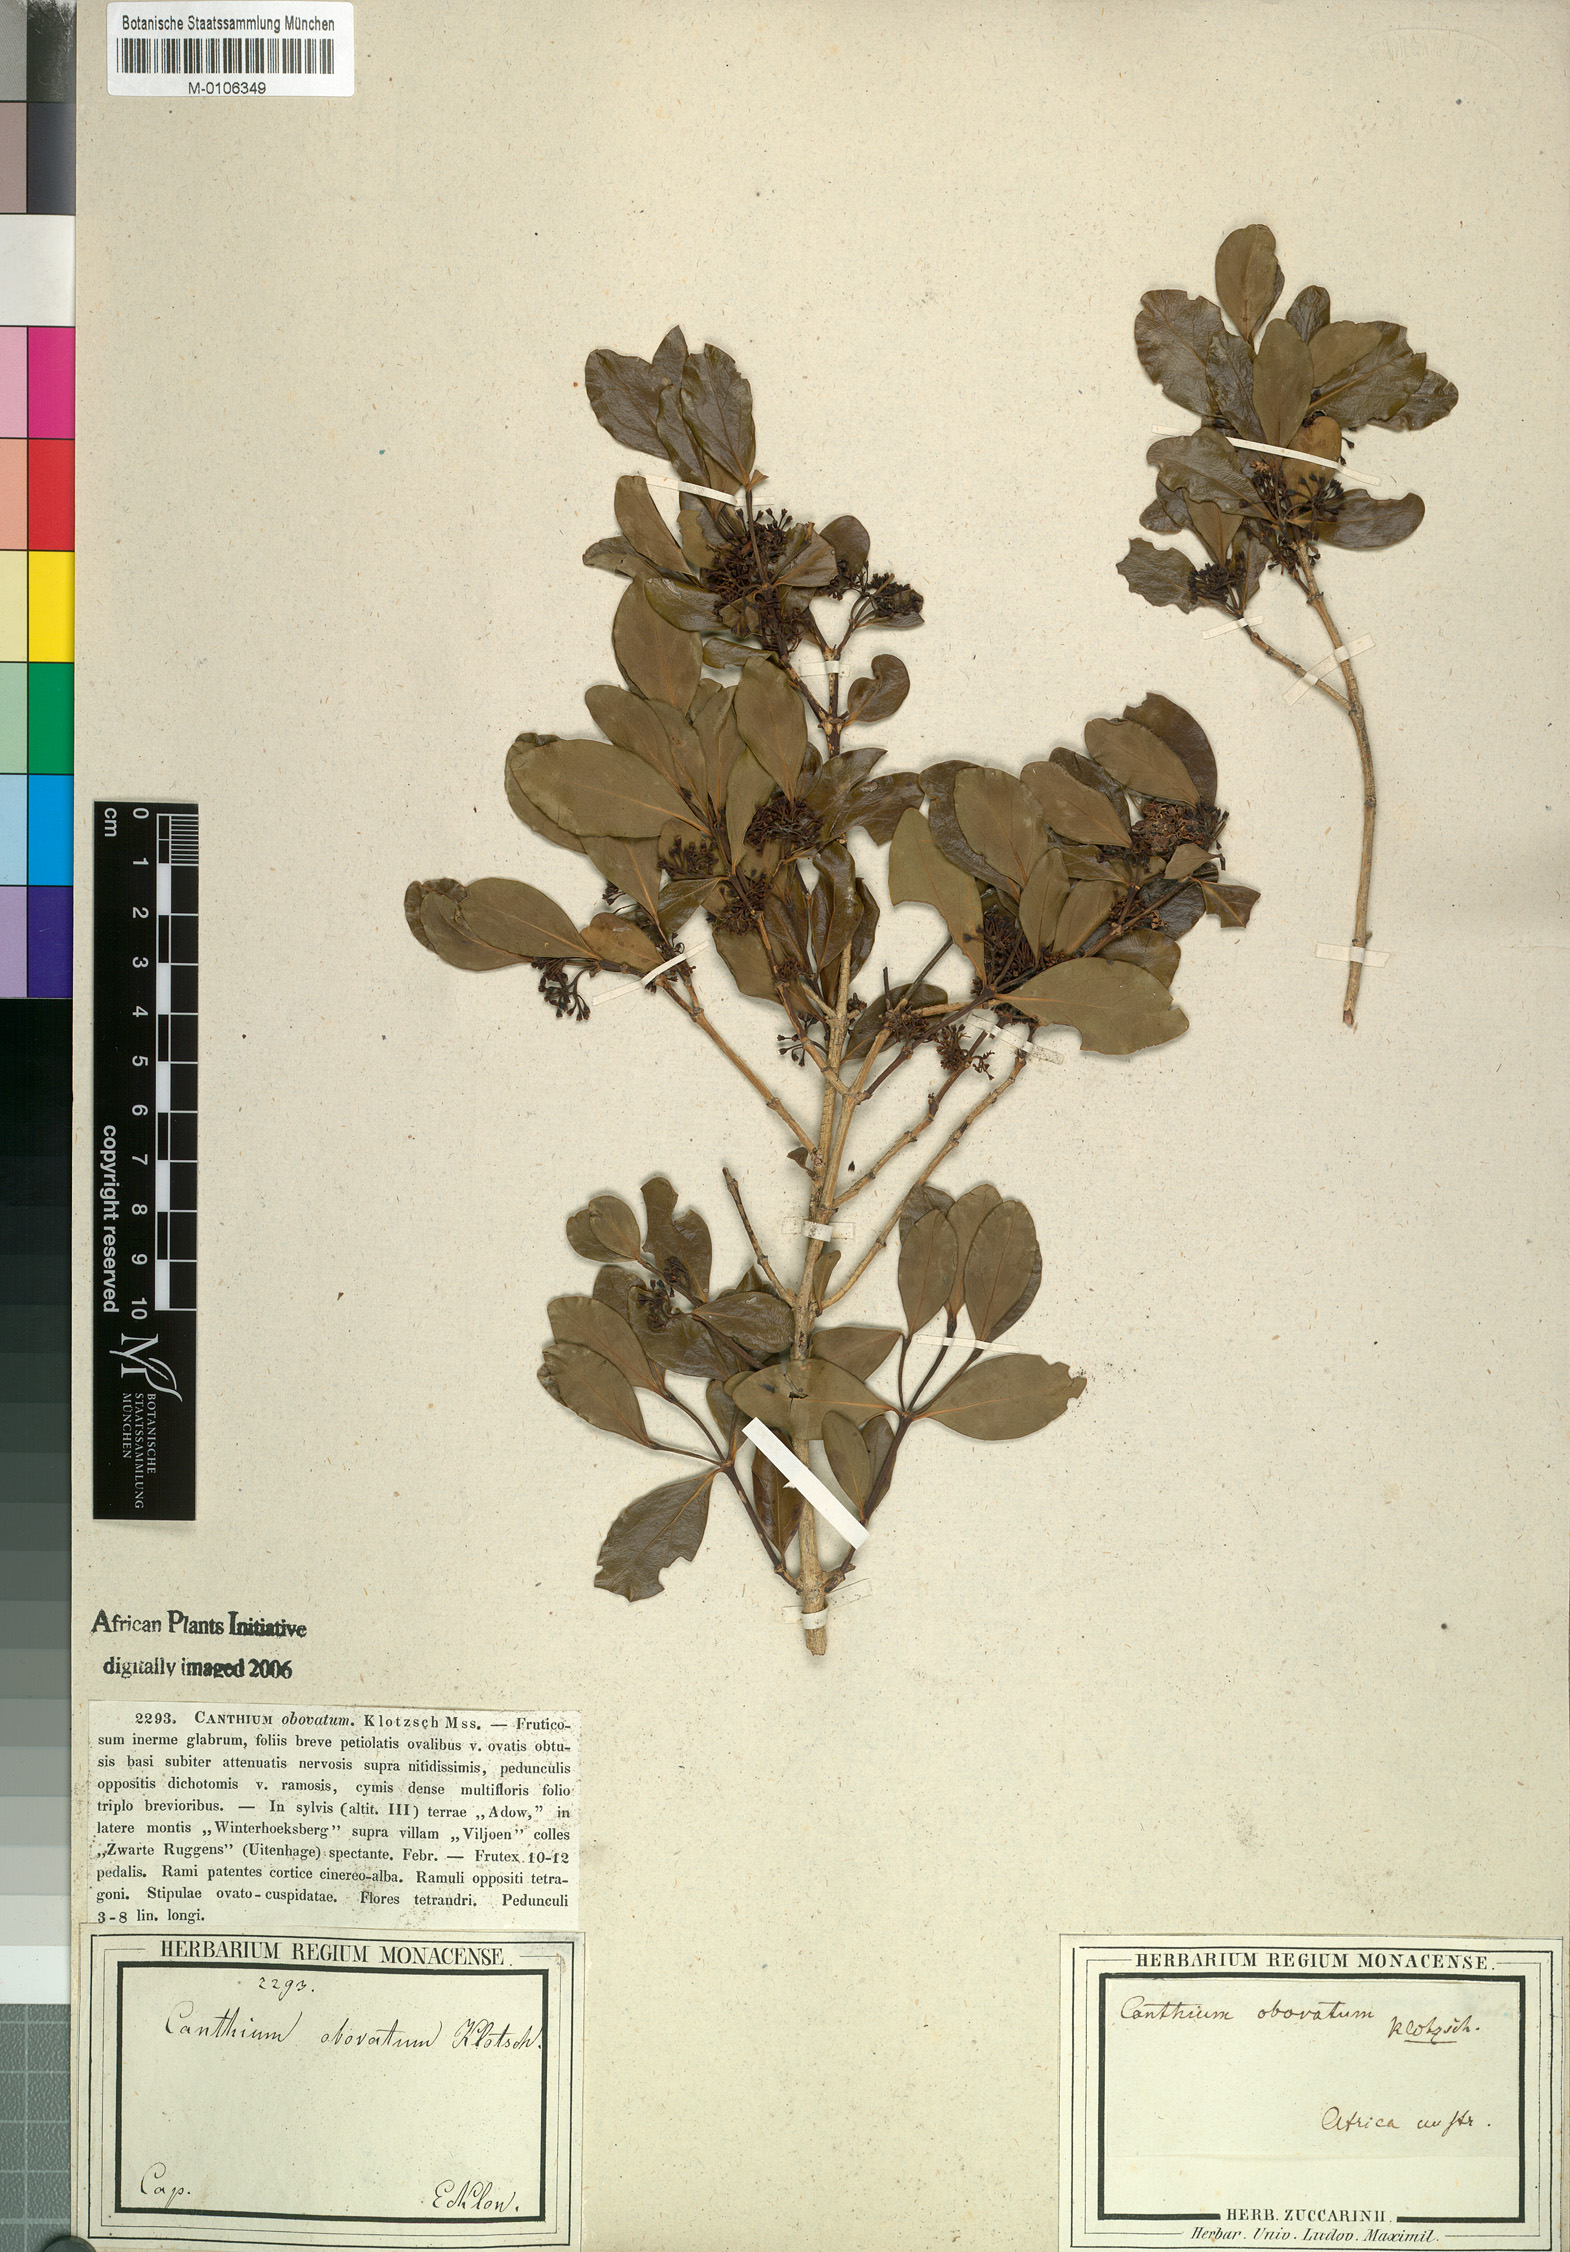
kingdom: Plantae
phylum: Tracheophyta
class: Magnoliopsida
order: Gentianales
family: Rubiaceae
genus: Psydrax
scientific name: Psydrax obovatus
